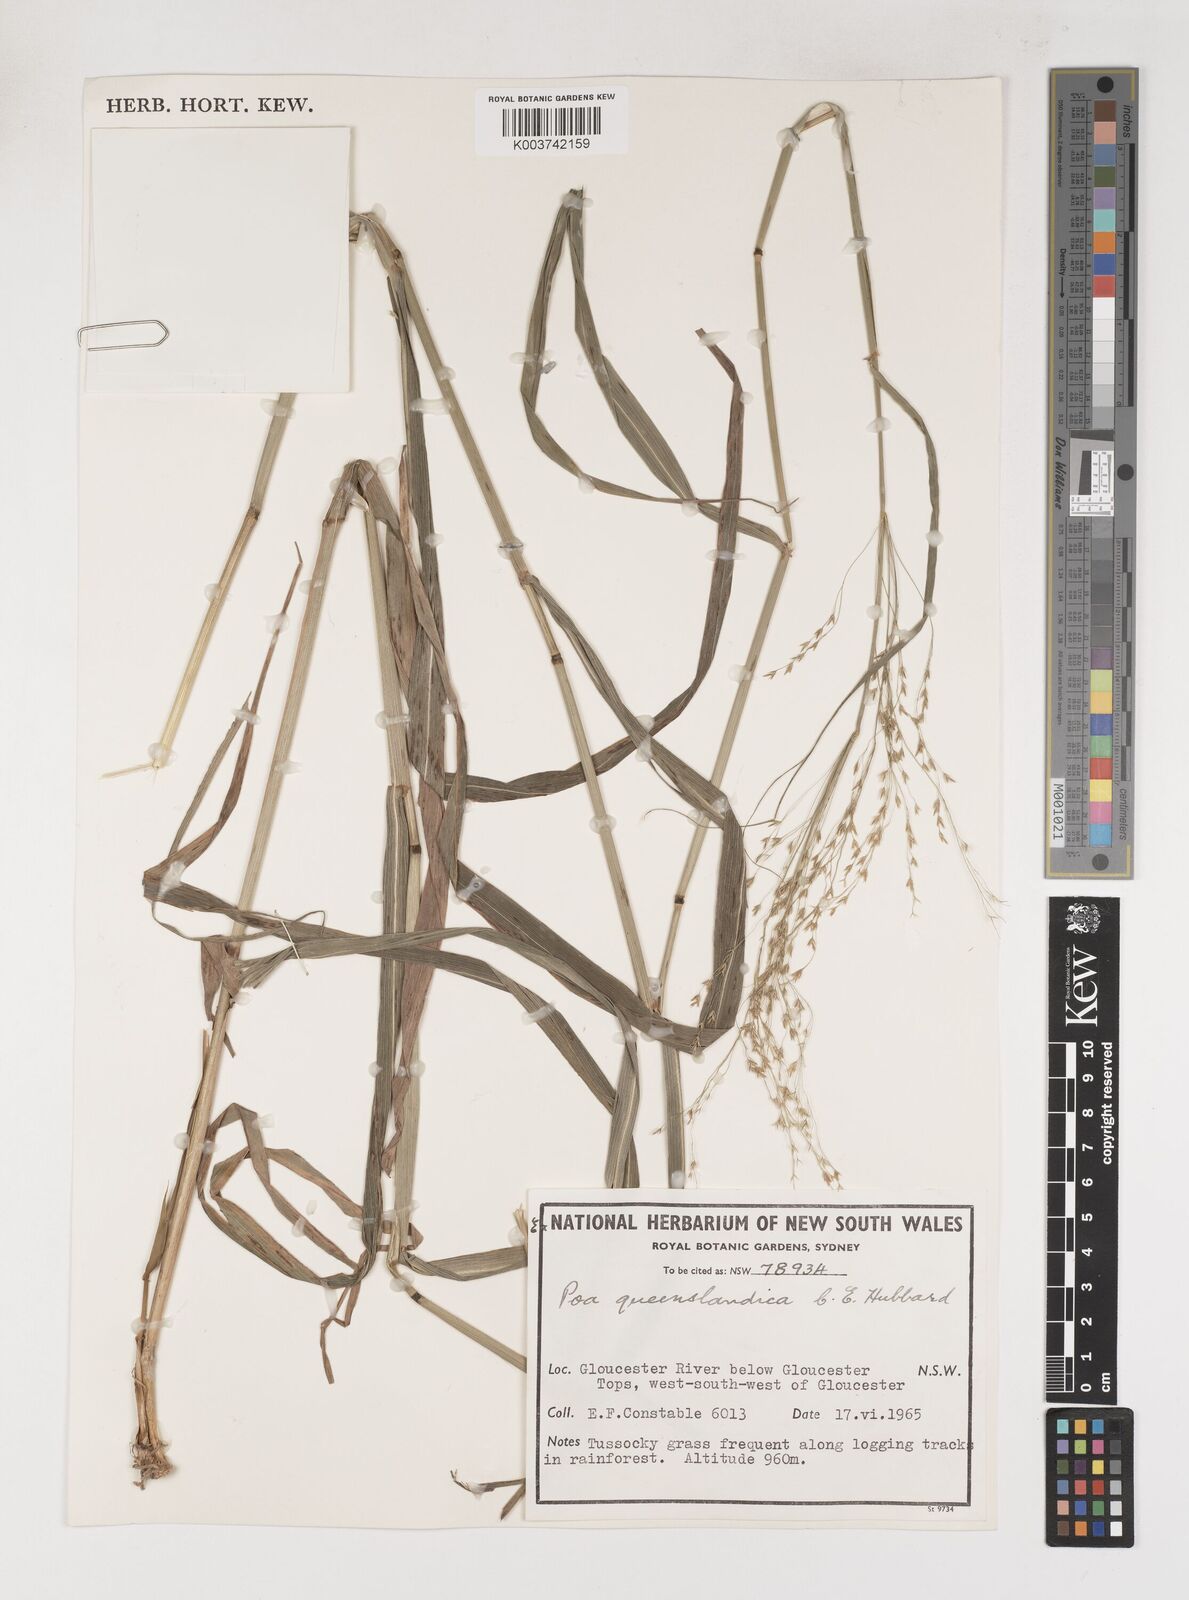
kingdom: Plantae
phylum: Tracheophyta
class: Liliopsida
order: Poales
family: Poaceae
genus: Sylvipoa
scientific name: Sylvipoa queenslandica
